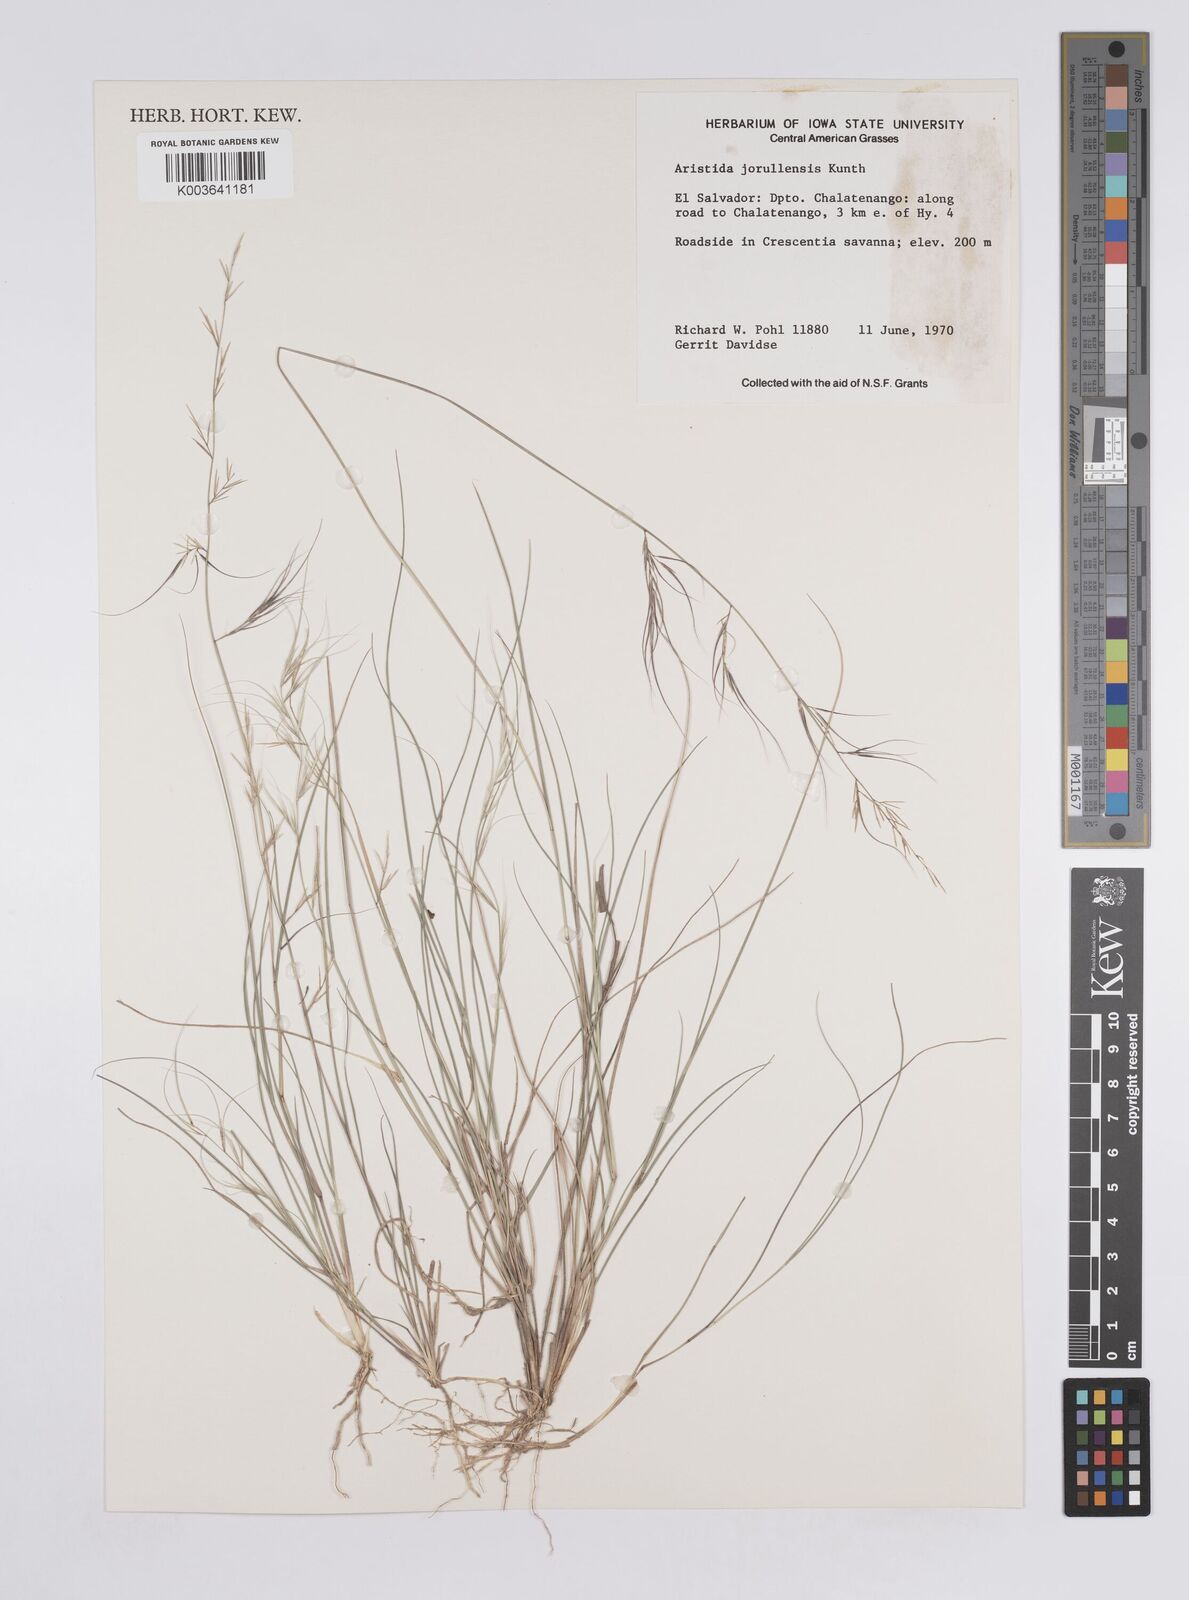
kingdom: Plantae
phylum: Tracheophyta
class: Liliopsida
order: Poales
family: Poaceae
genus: Aristida
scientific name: Aristida jorullensis
